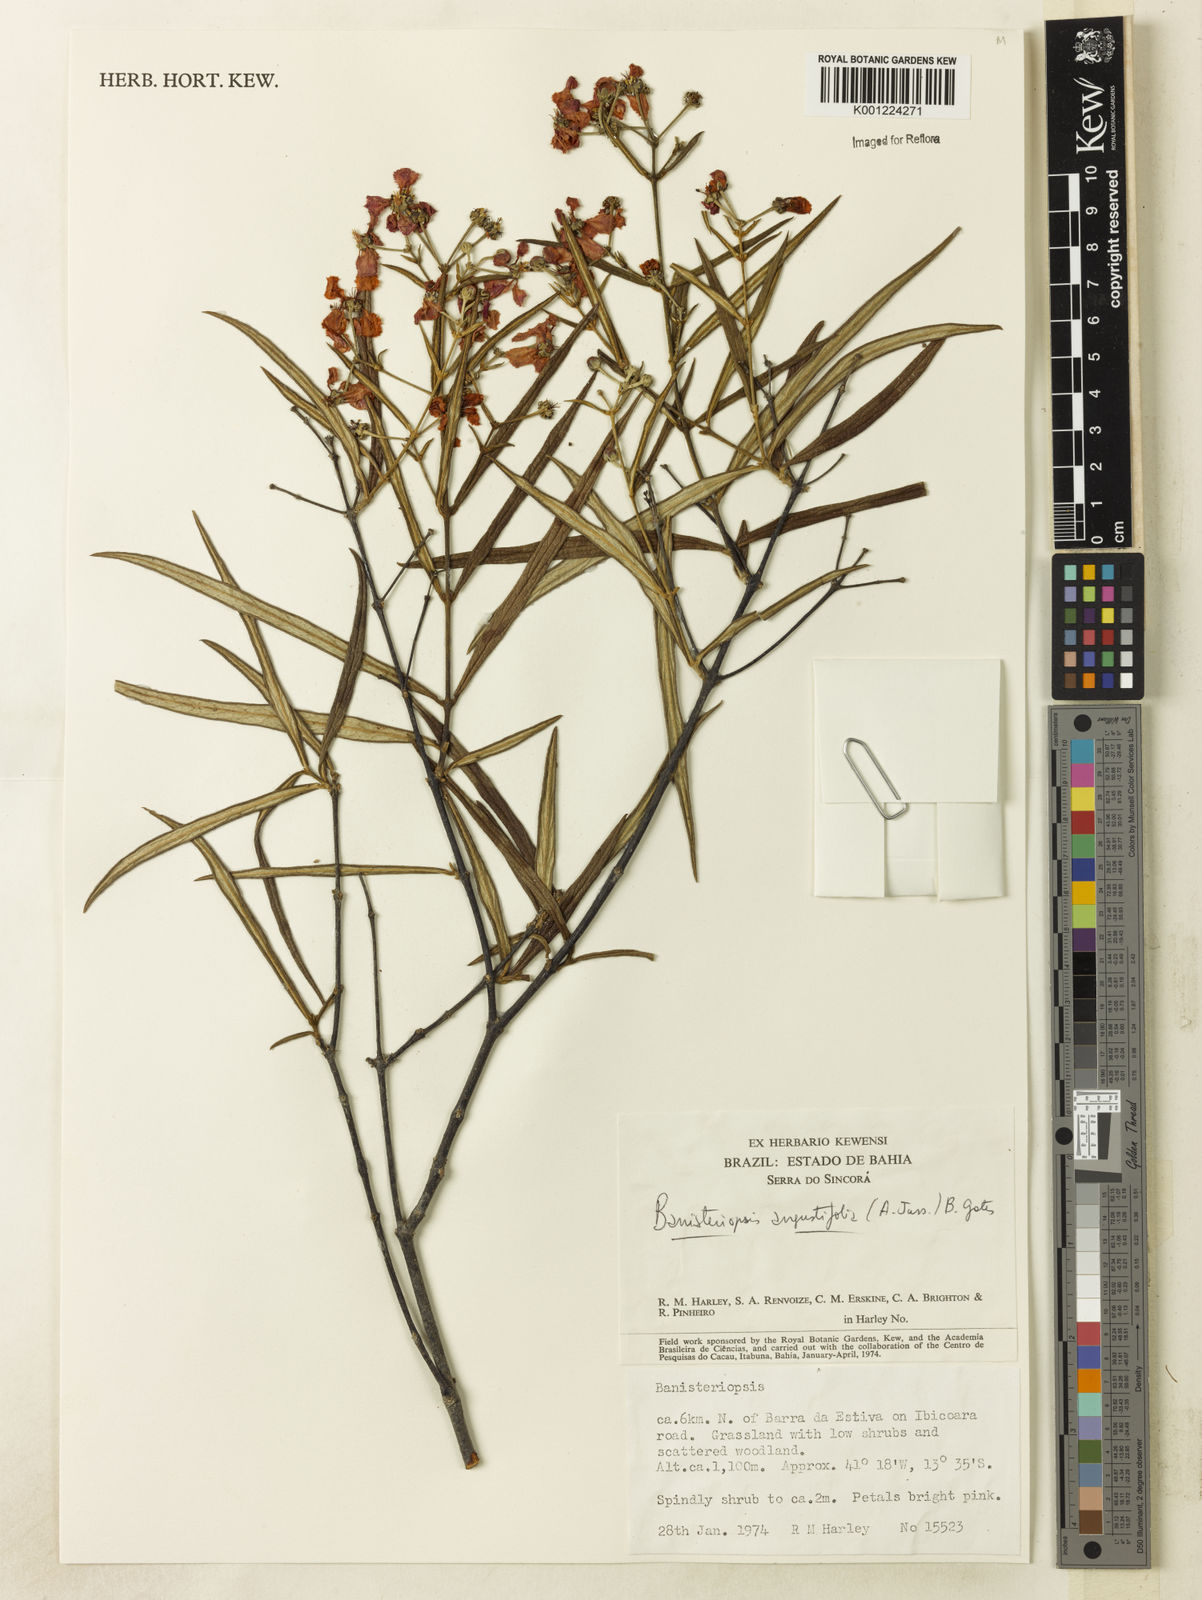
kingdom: Plantae
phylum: Tracheophyta
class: Magnoliopsida
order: Malpighiales
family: Malpighiaceae
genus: Banisteriopsis
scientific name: Banisteriopsis angustifolia
